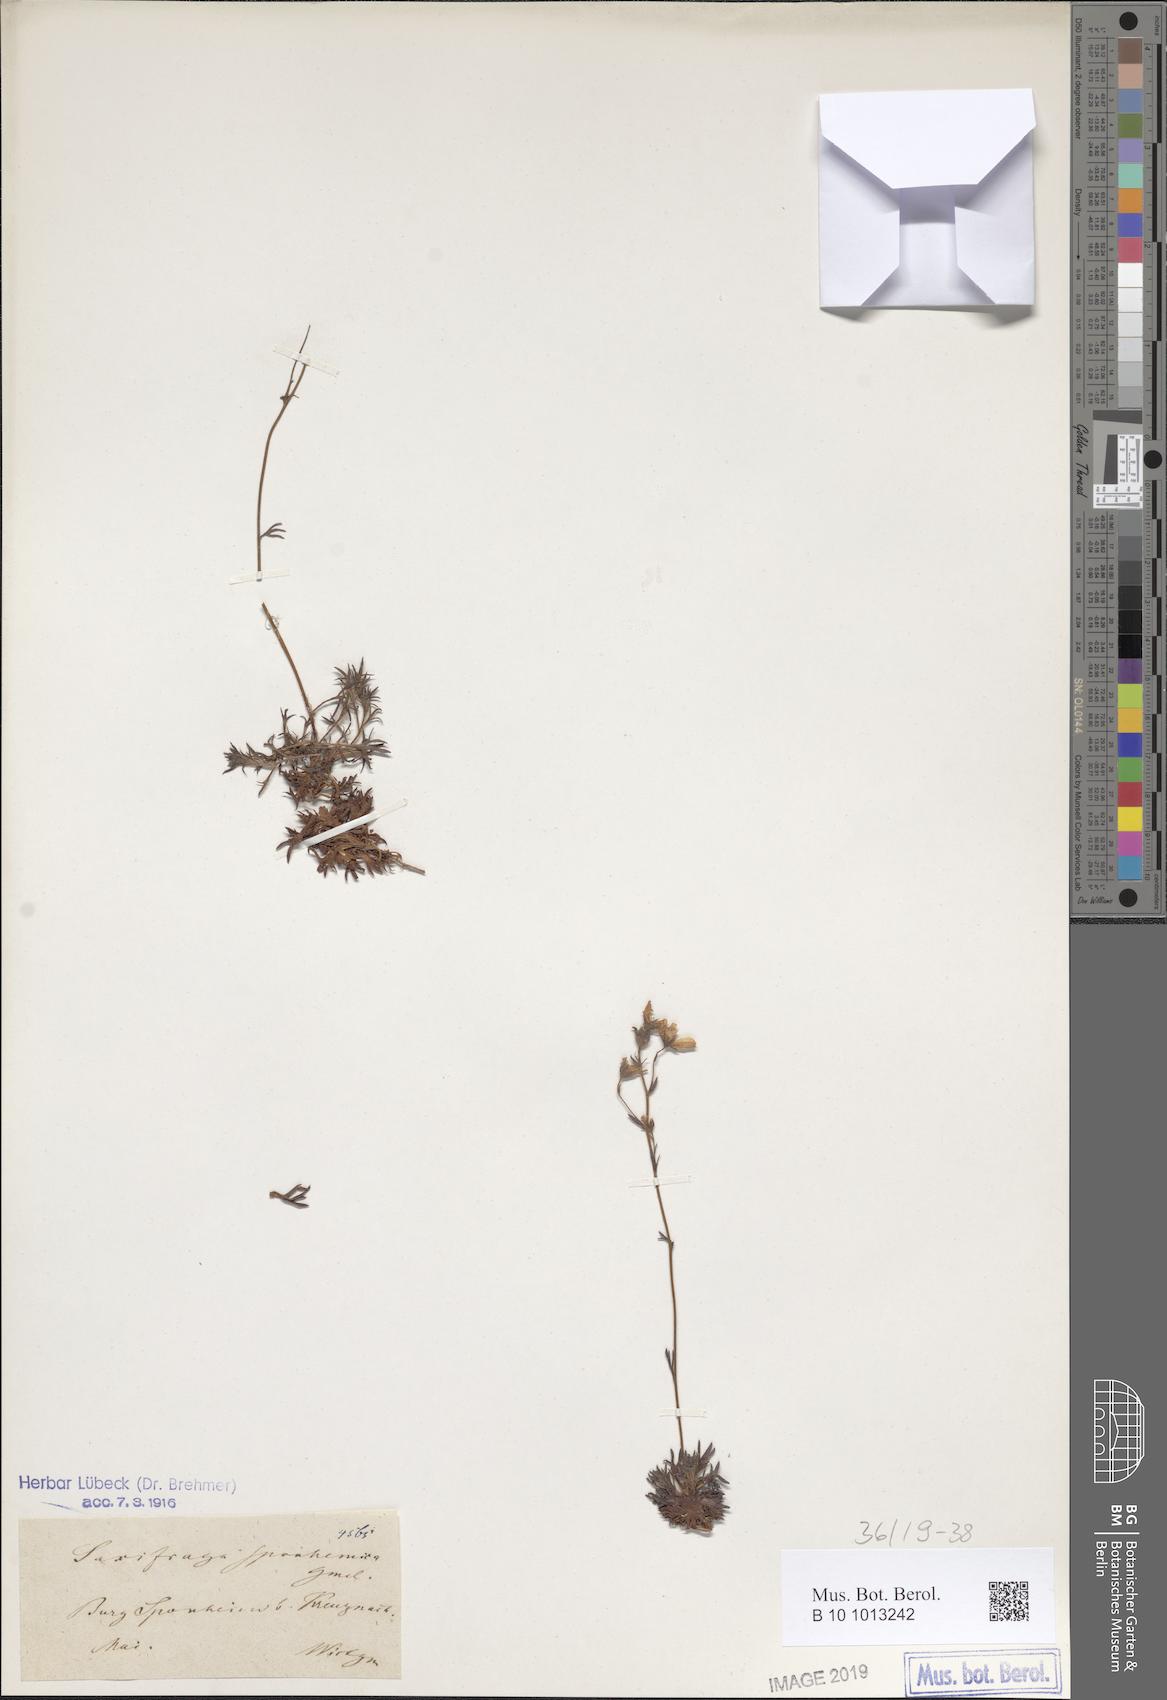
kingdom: Plantae
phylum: Tracheophyta
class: Magnoliopsida
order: Saxifragales
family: Saxifragaceae
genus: Saxifraga
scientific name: Saxifraga rosacea
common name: Irish saxifrage
